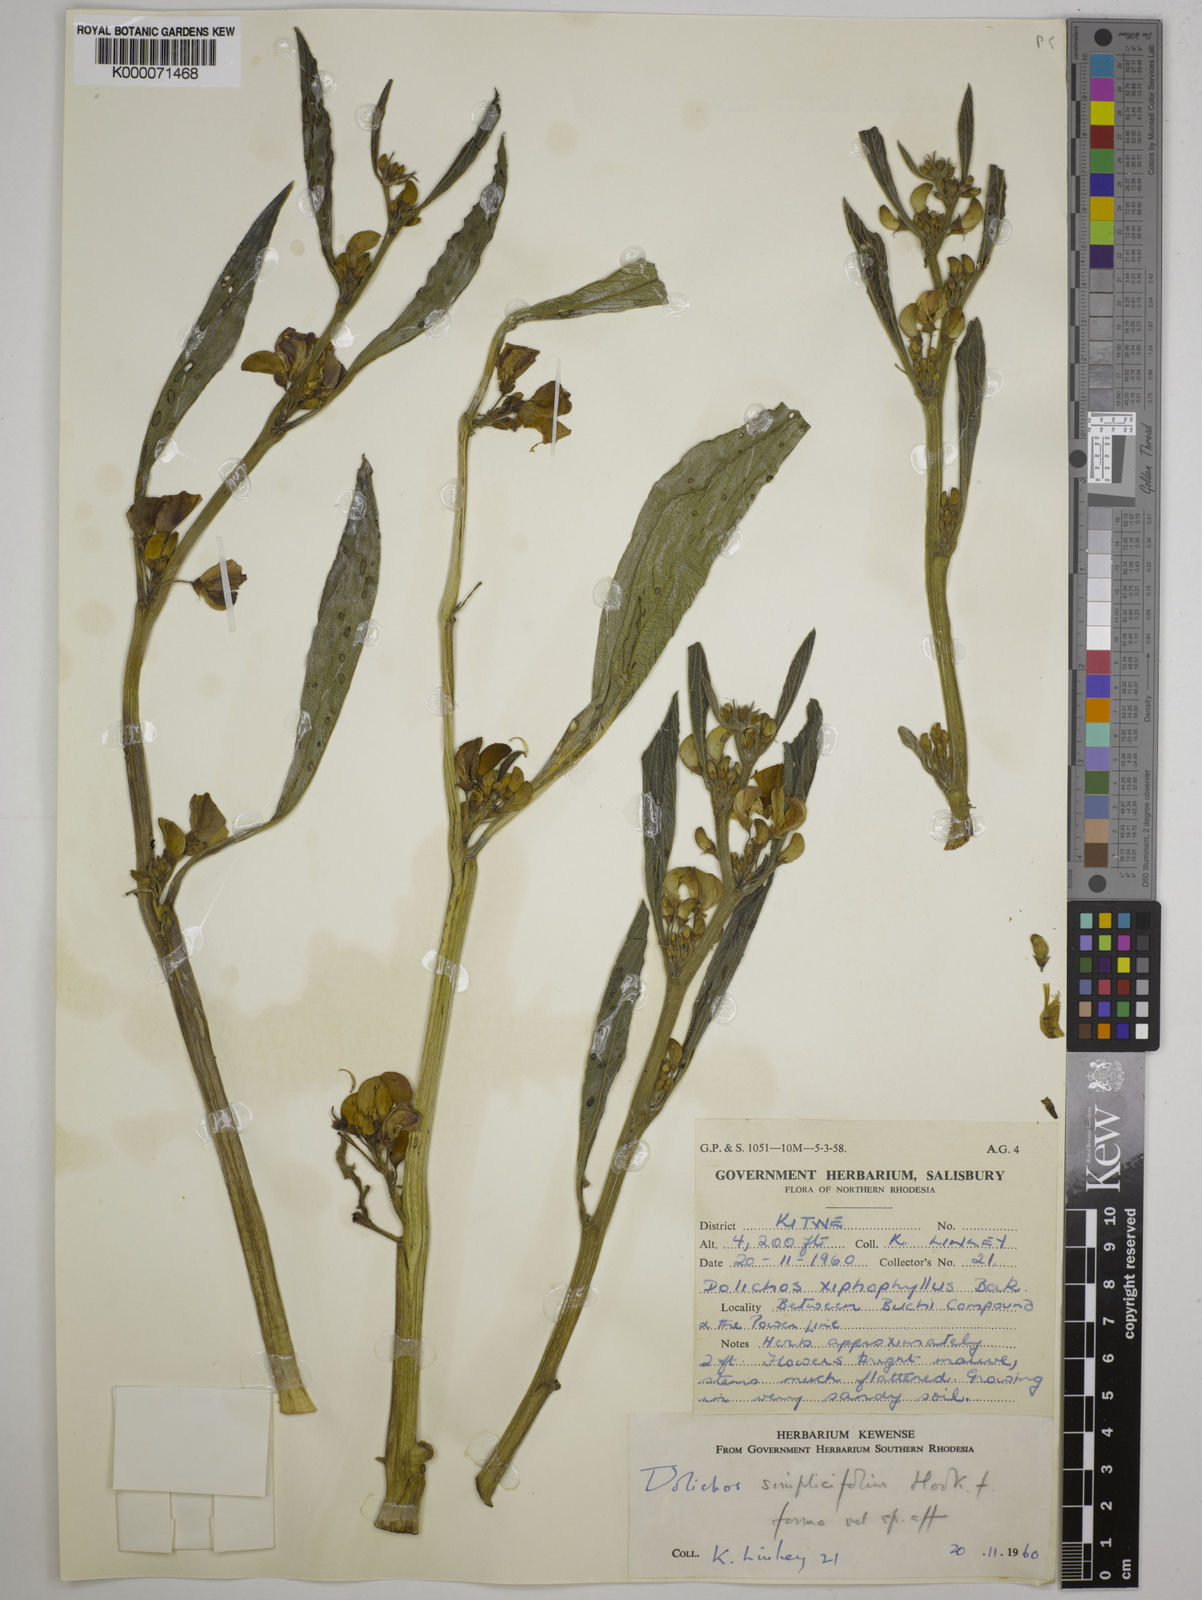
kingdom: Plantae
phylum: Tracheophyta
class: Magnoliopsida
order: Fabales
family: Fabaceae
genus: Dolichos
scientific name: Dolichos simplicifolius
